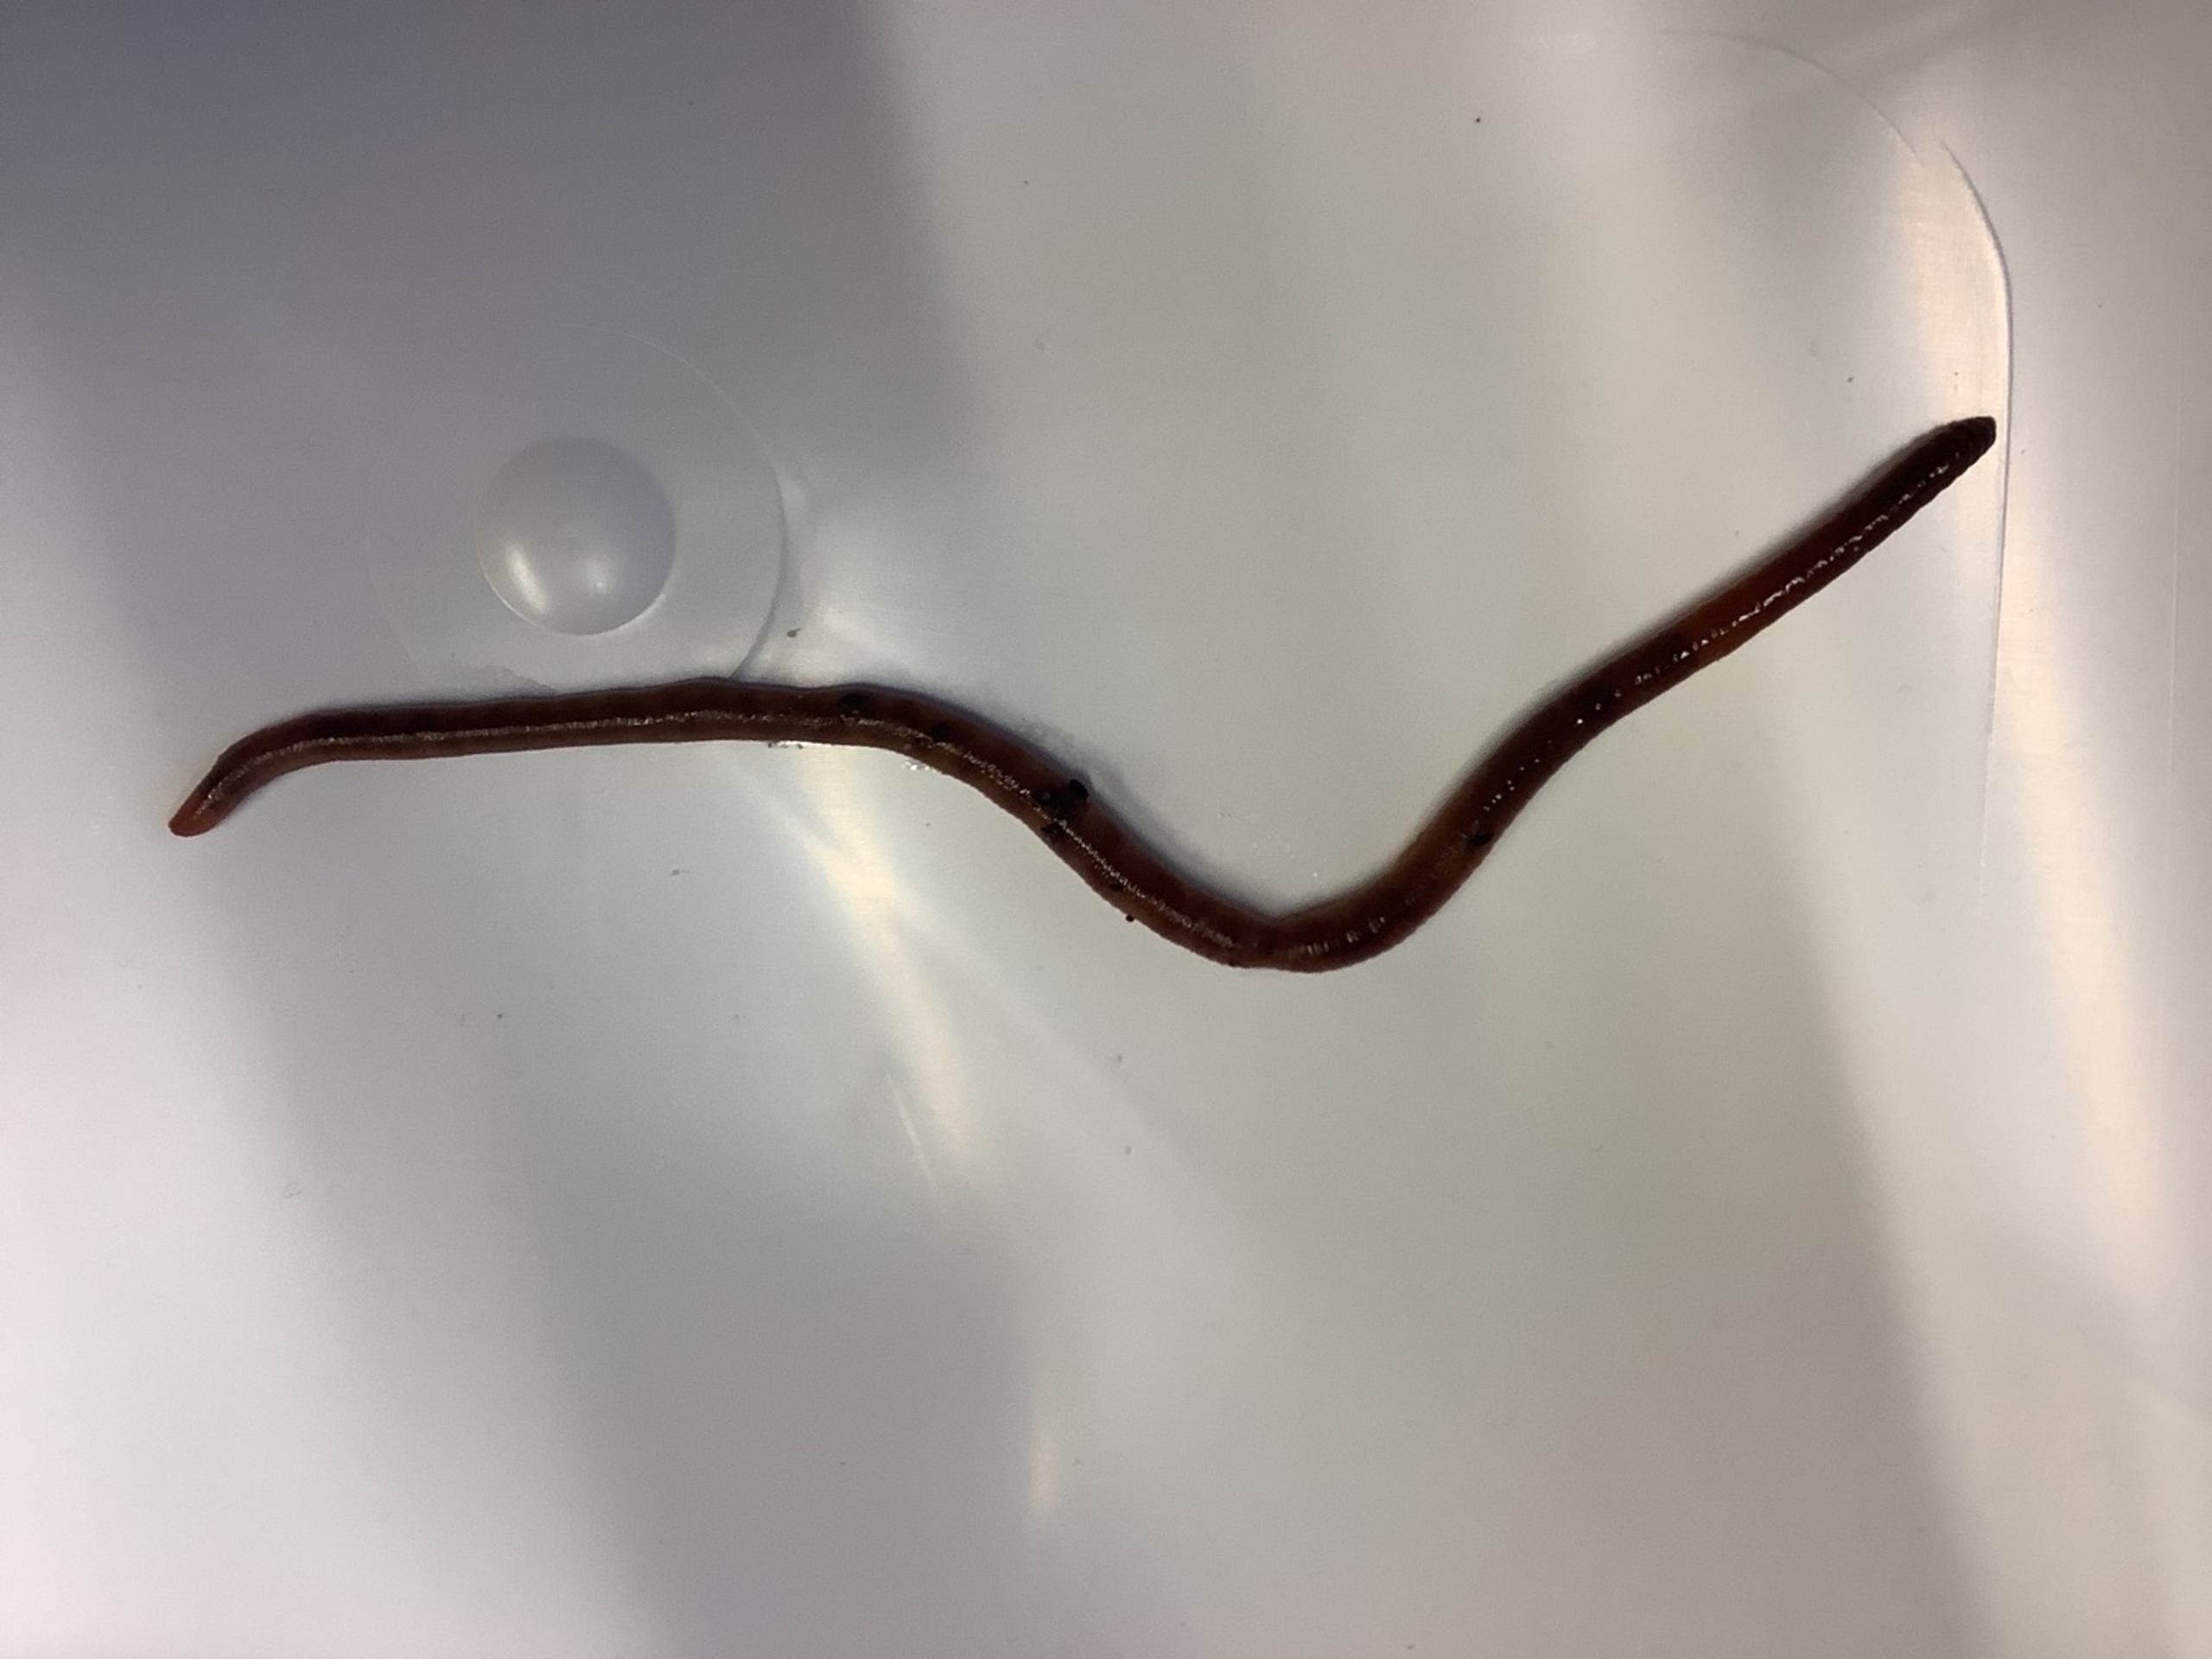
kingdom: Animalia
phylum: Annelida
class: Clitellata
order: Crassiclitellata
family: Lumbricidae
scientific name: Lumbricidae
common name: Regnorme
